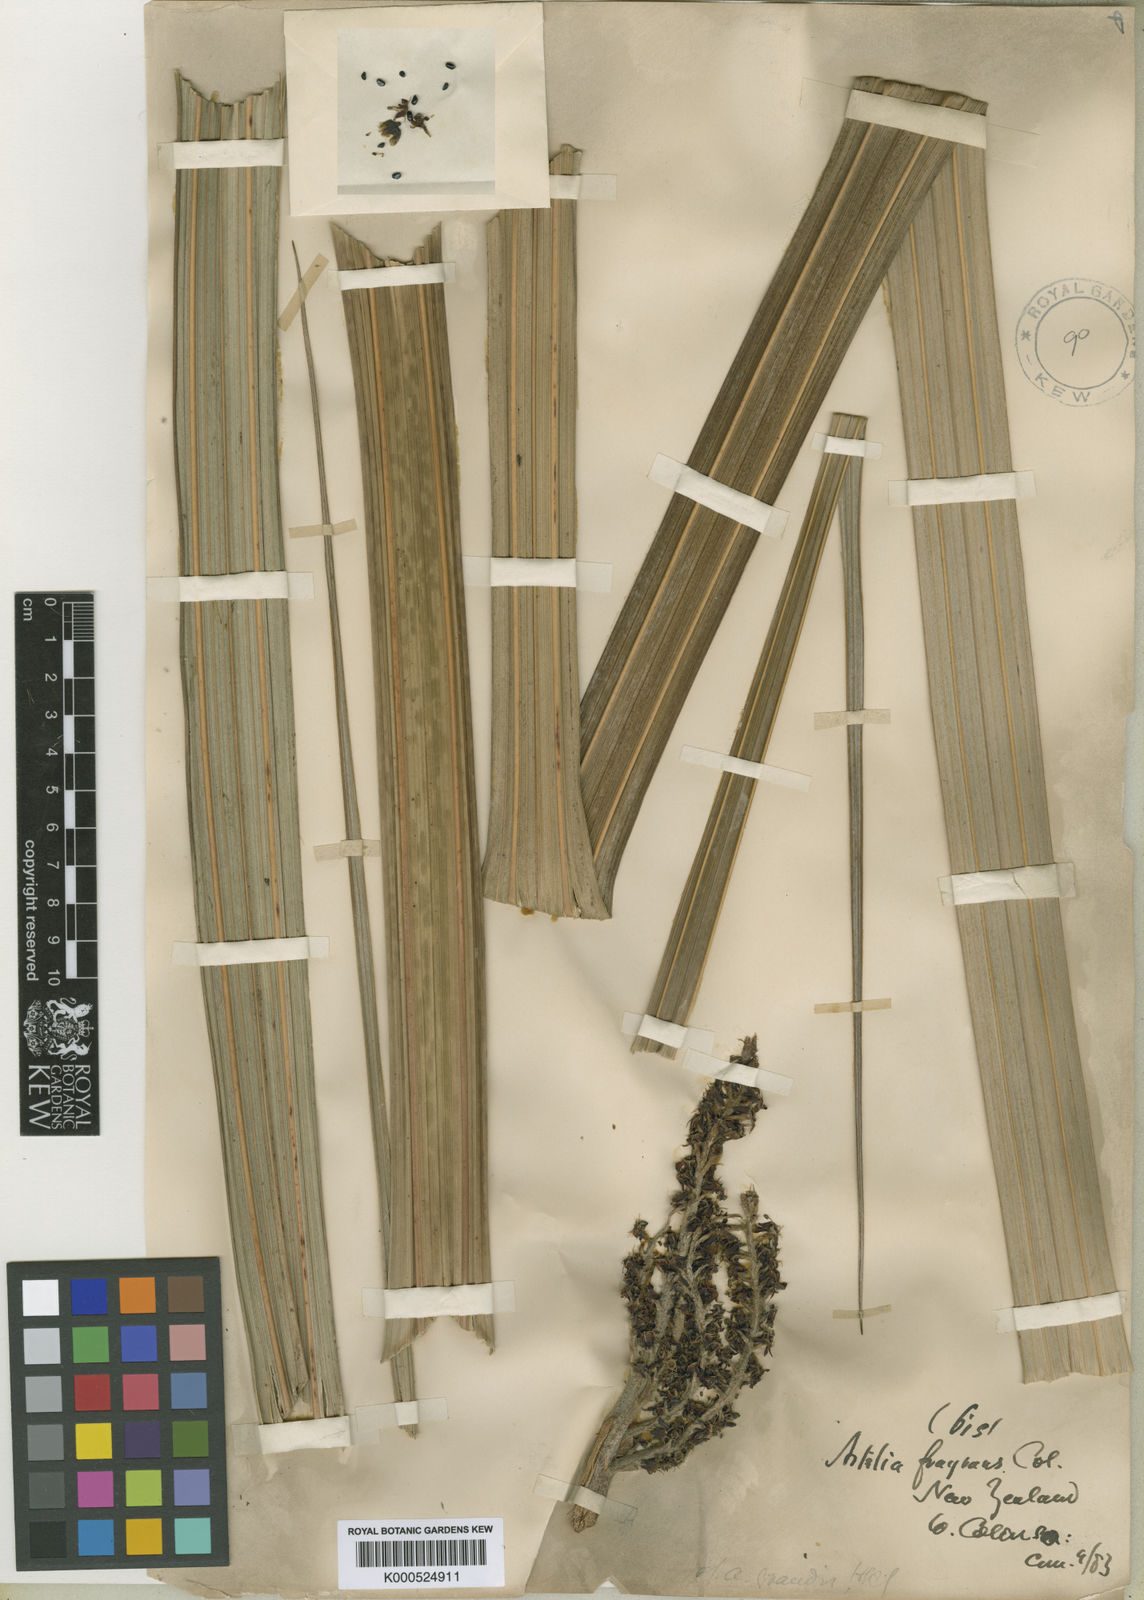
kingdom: Plantae
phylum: Tracheophyta
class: Liliopsida
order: Asparagales
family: Asteliaceae
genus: Astelia
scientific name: Astelia nervosa
